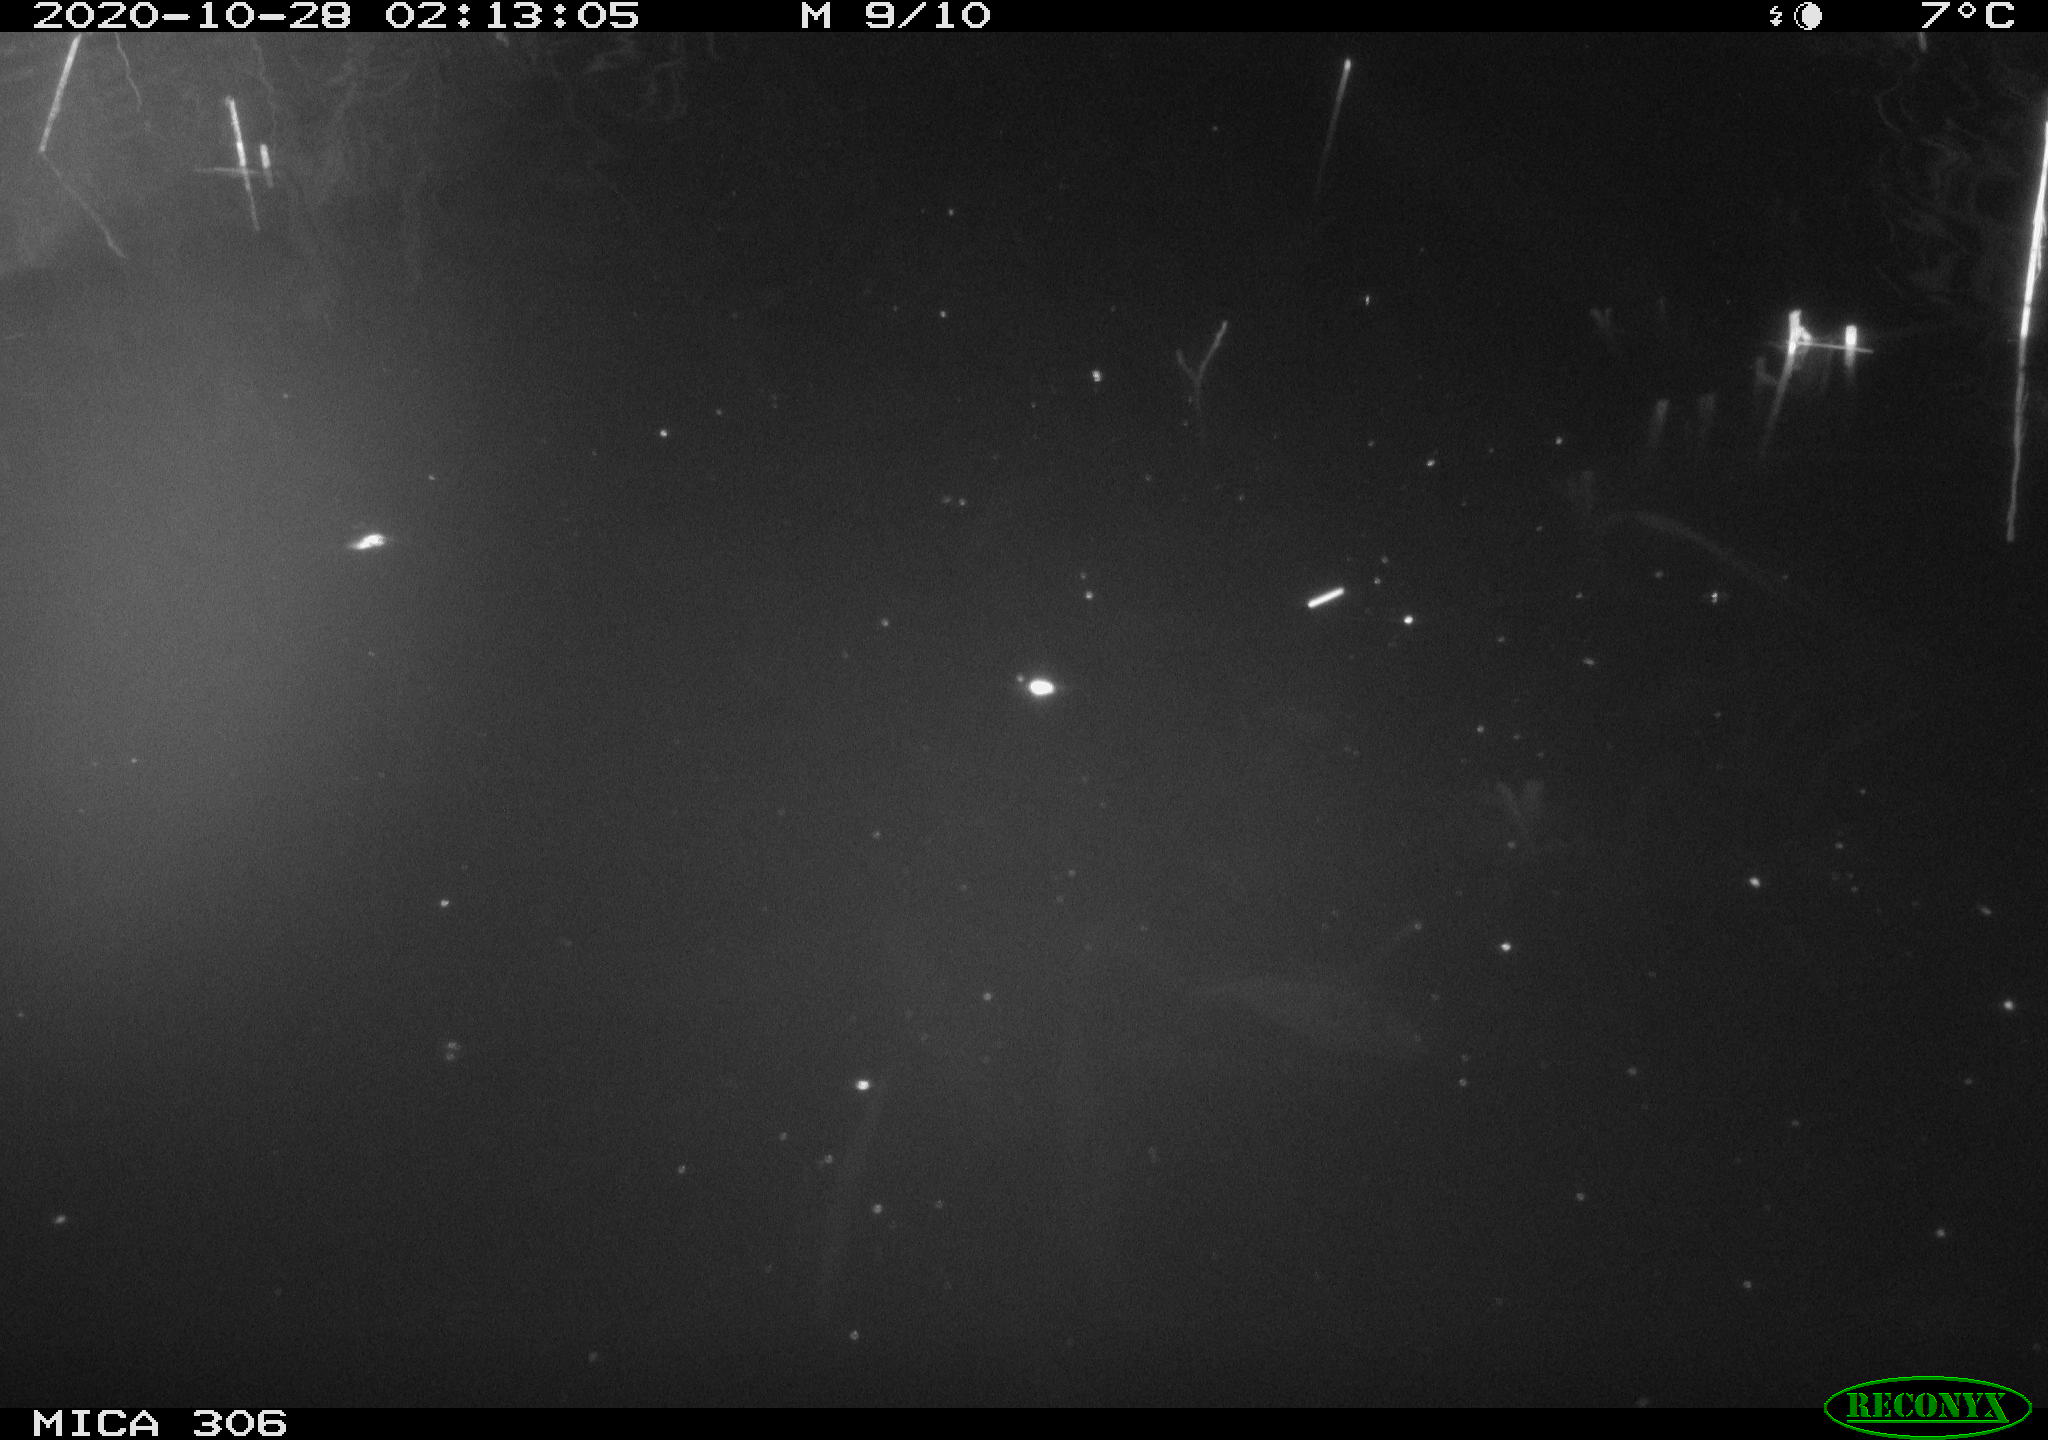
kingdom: Animalia
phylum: Chordata
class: Mammalia
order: Rodentia
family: Cricetidae
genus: Ondatra
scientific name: Ondatra zibethicus
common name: Muskrat
